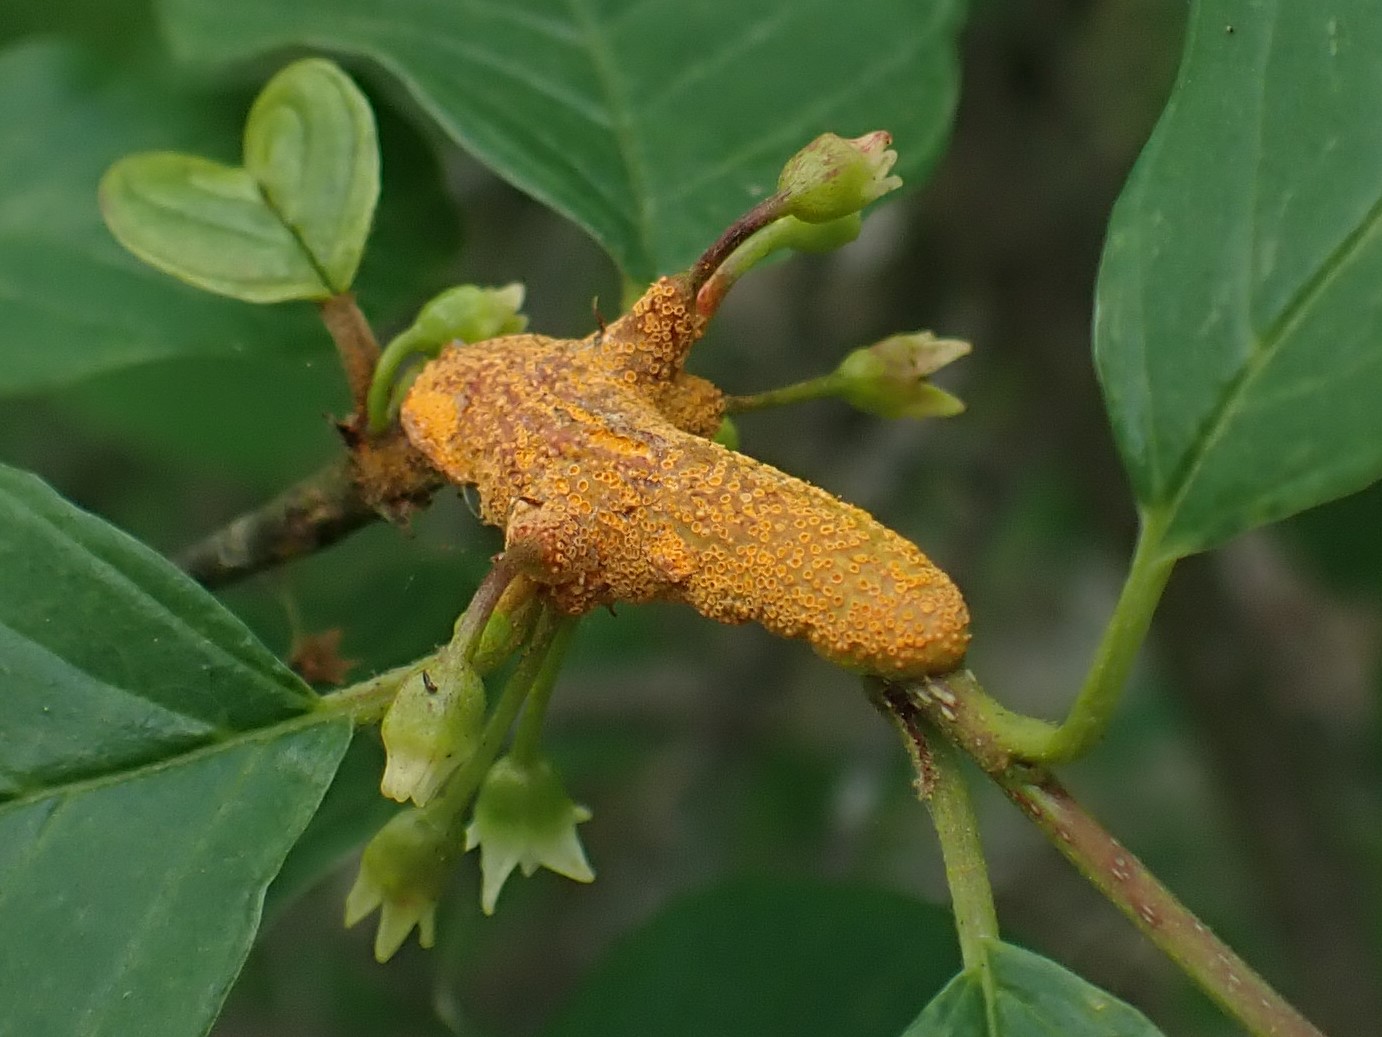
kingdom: Fungi
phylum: Basidiomycota
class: Pucciniomycetes
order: Pucciniales
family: Pucciniaceae
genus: Puccinia
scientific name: Puccinia coronata
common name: Crown rust
